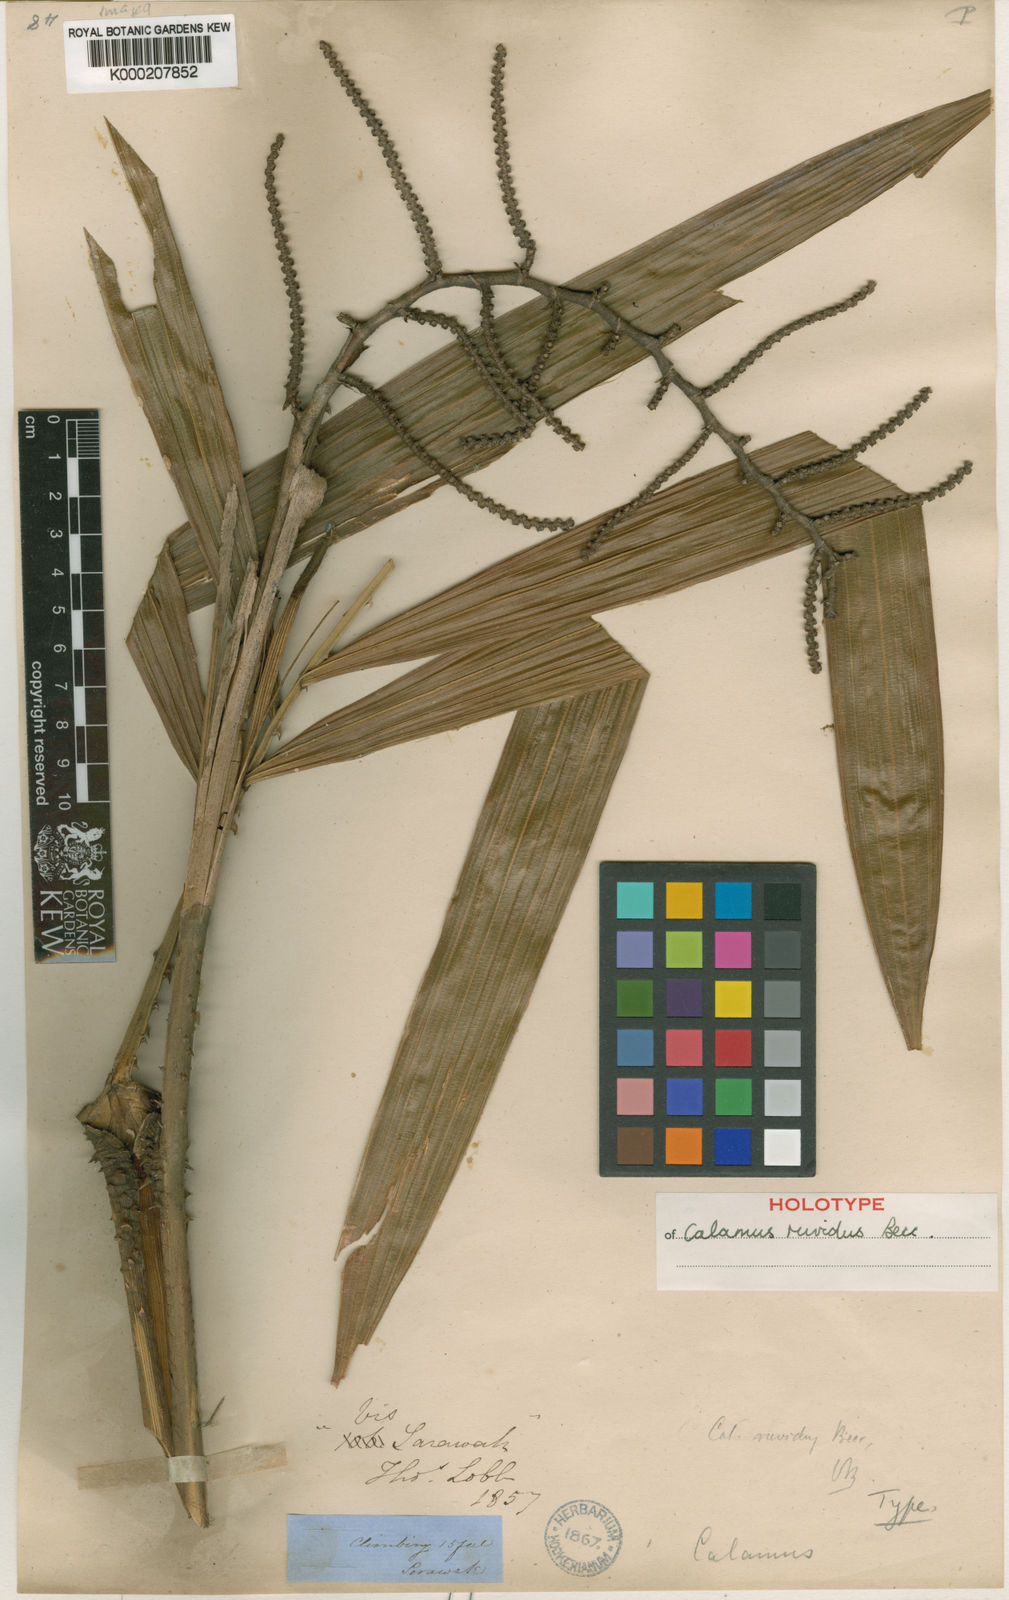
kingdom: Plantae
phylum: Tracheophyta
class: Liliopsida
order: Arecales
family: Arecaceae
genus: Calamus
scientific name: Calamus ruvidus
